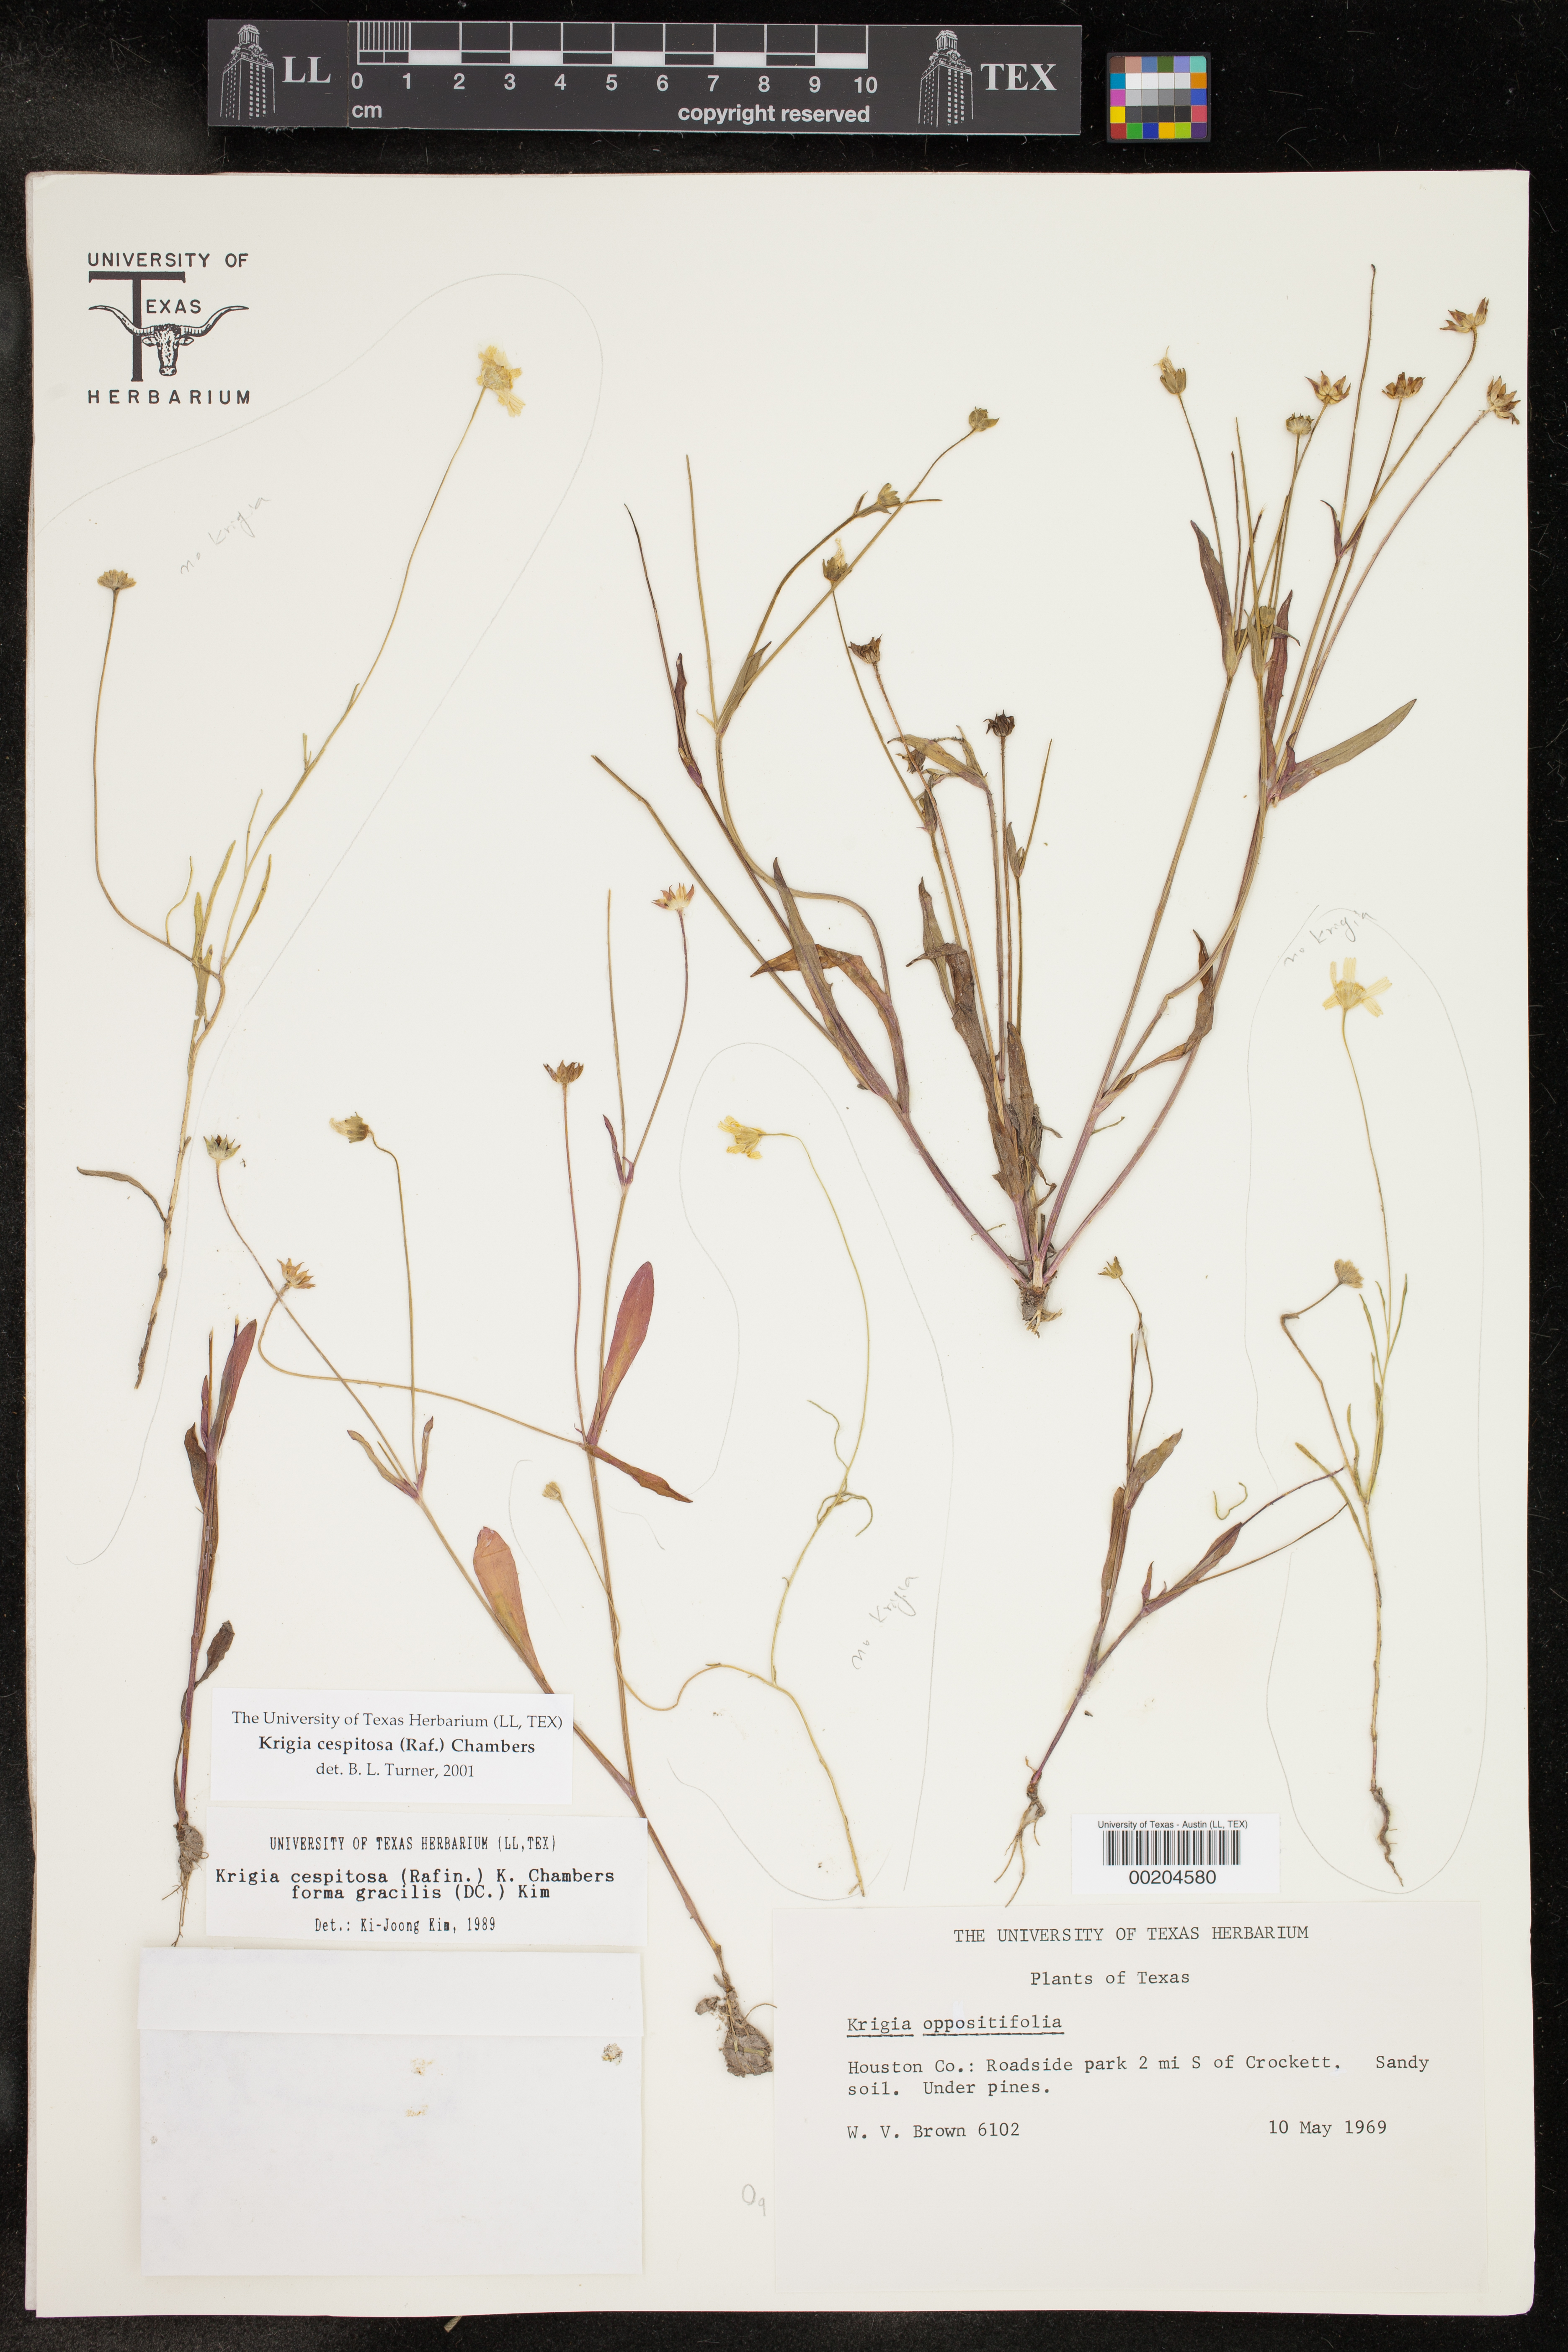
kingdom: Plantae
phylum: Tracheophyta
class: Magnoliopsida
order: Asterales
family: Asteraceae
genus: Krigia
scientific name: Krigia cespitosa
